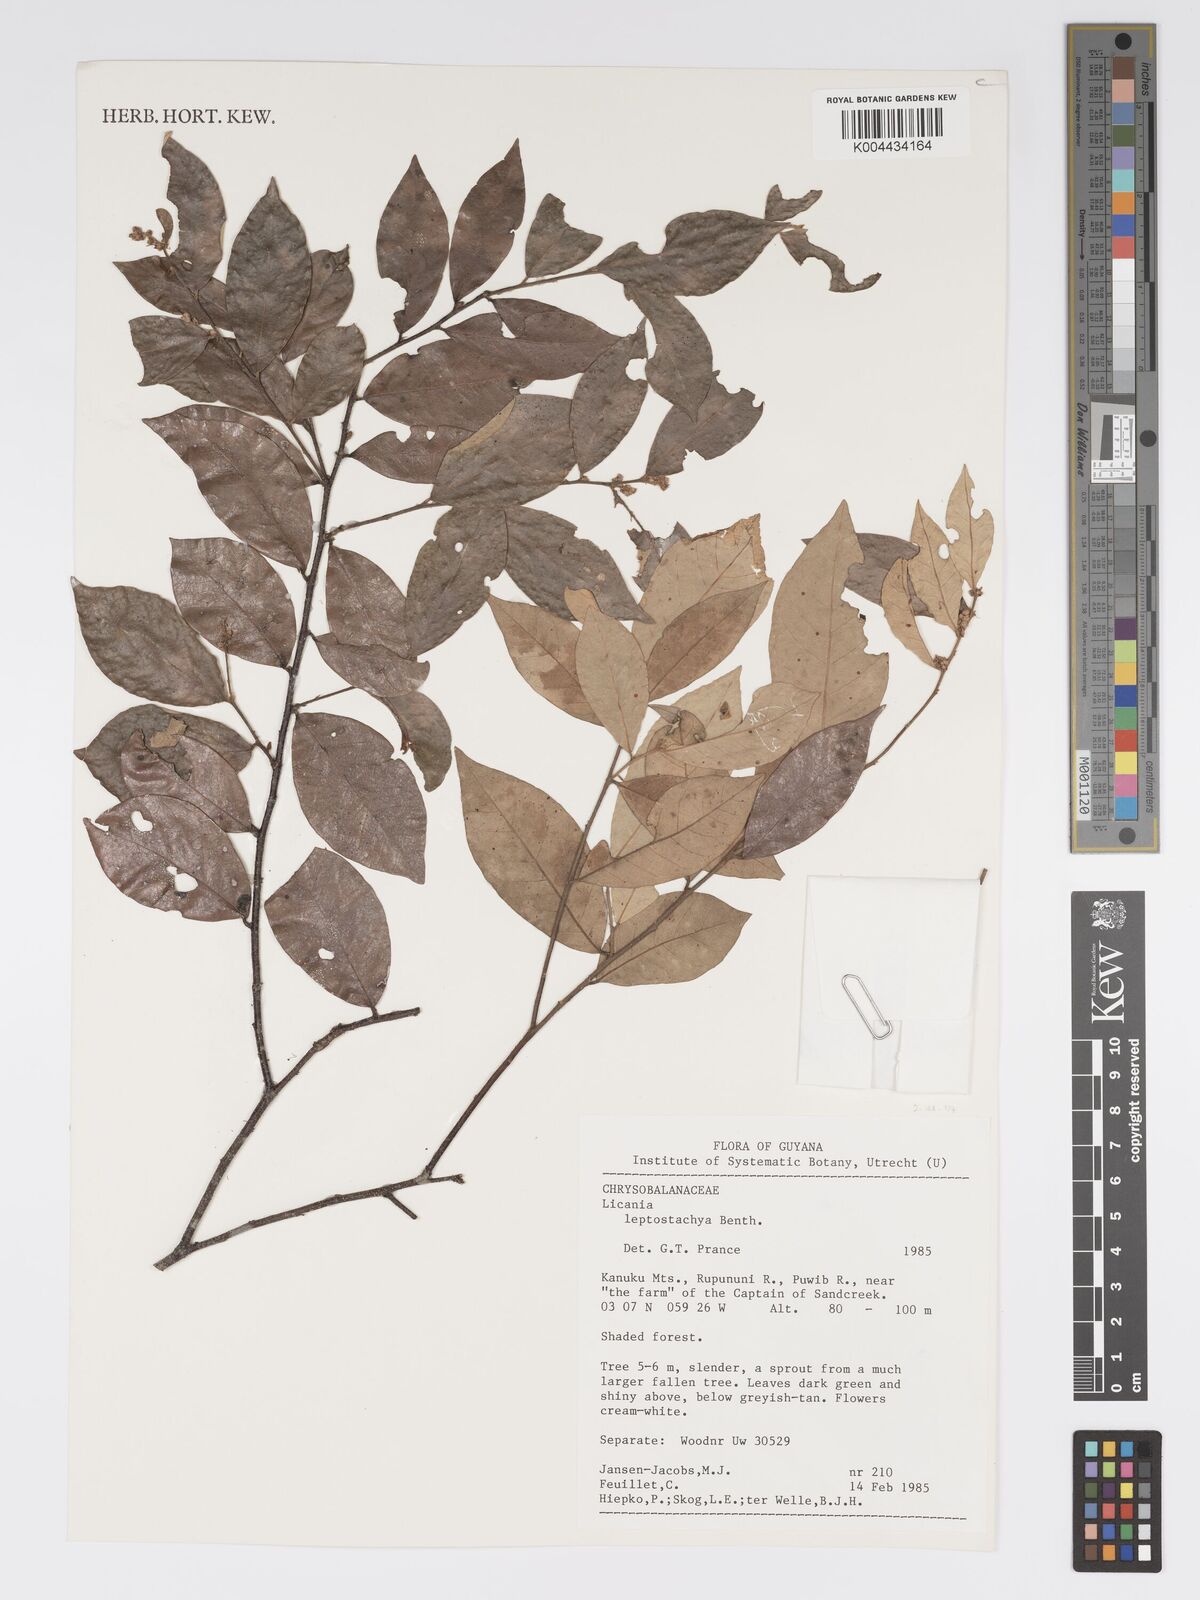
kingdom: Plantae
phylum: Tracheophyta
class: Magnoliopsida
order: Malpighiales
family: Chrysobalanaceae
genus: Licania
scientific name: Licania leptostachya
